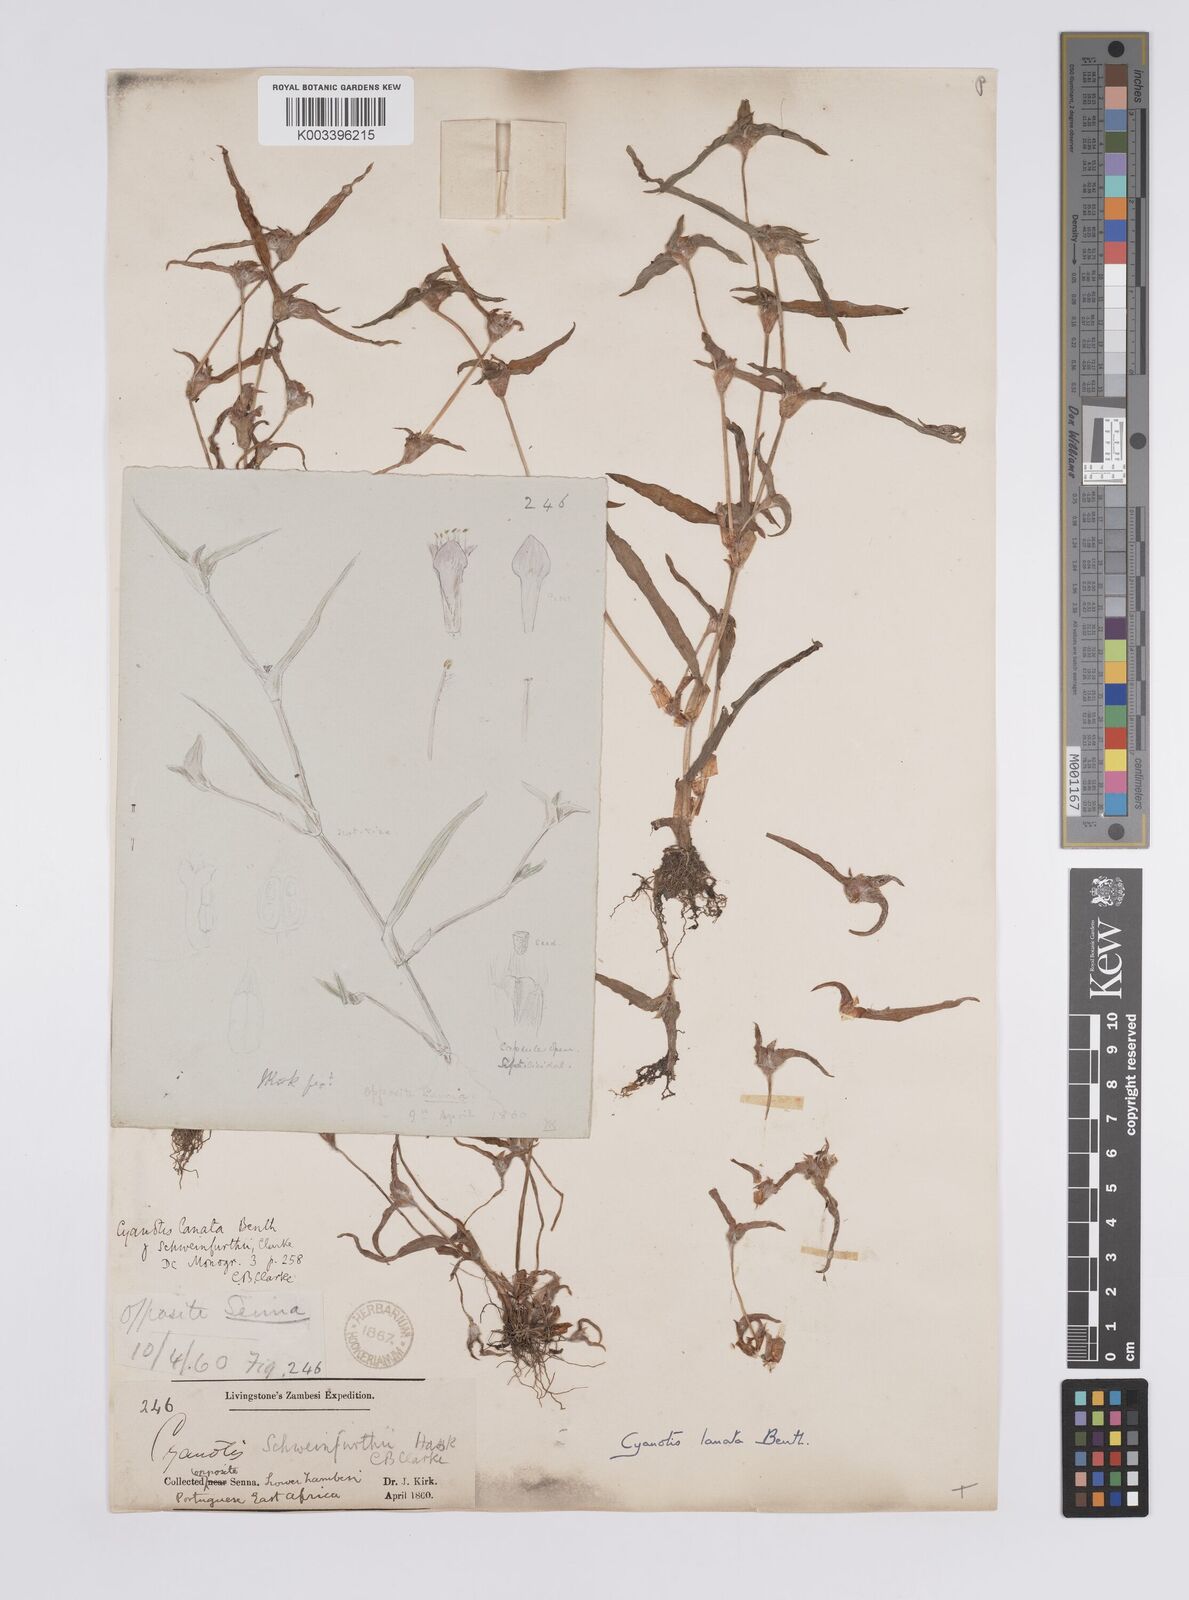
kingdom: Plantae
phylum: Tracheophyta
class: Liliopsida
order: Commelinales
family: Commelinaceae
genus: Cyanotis
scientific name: Cyanotis lanata
